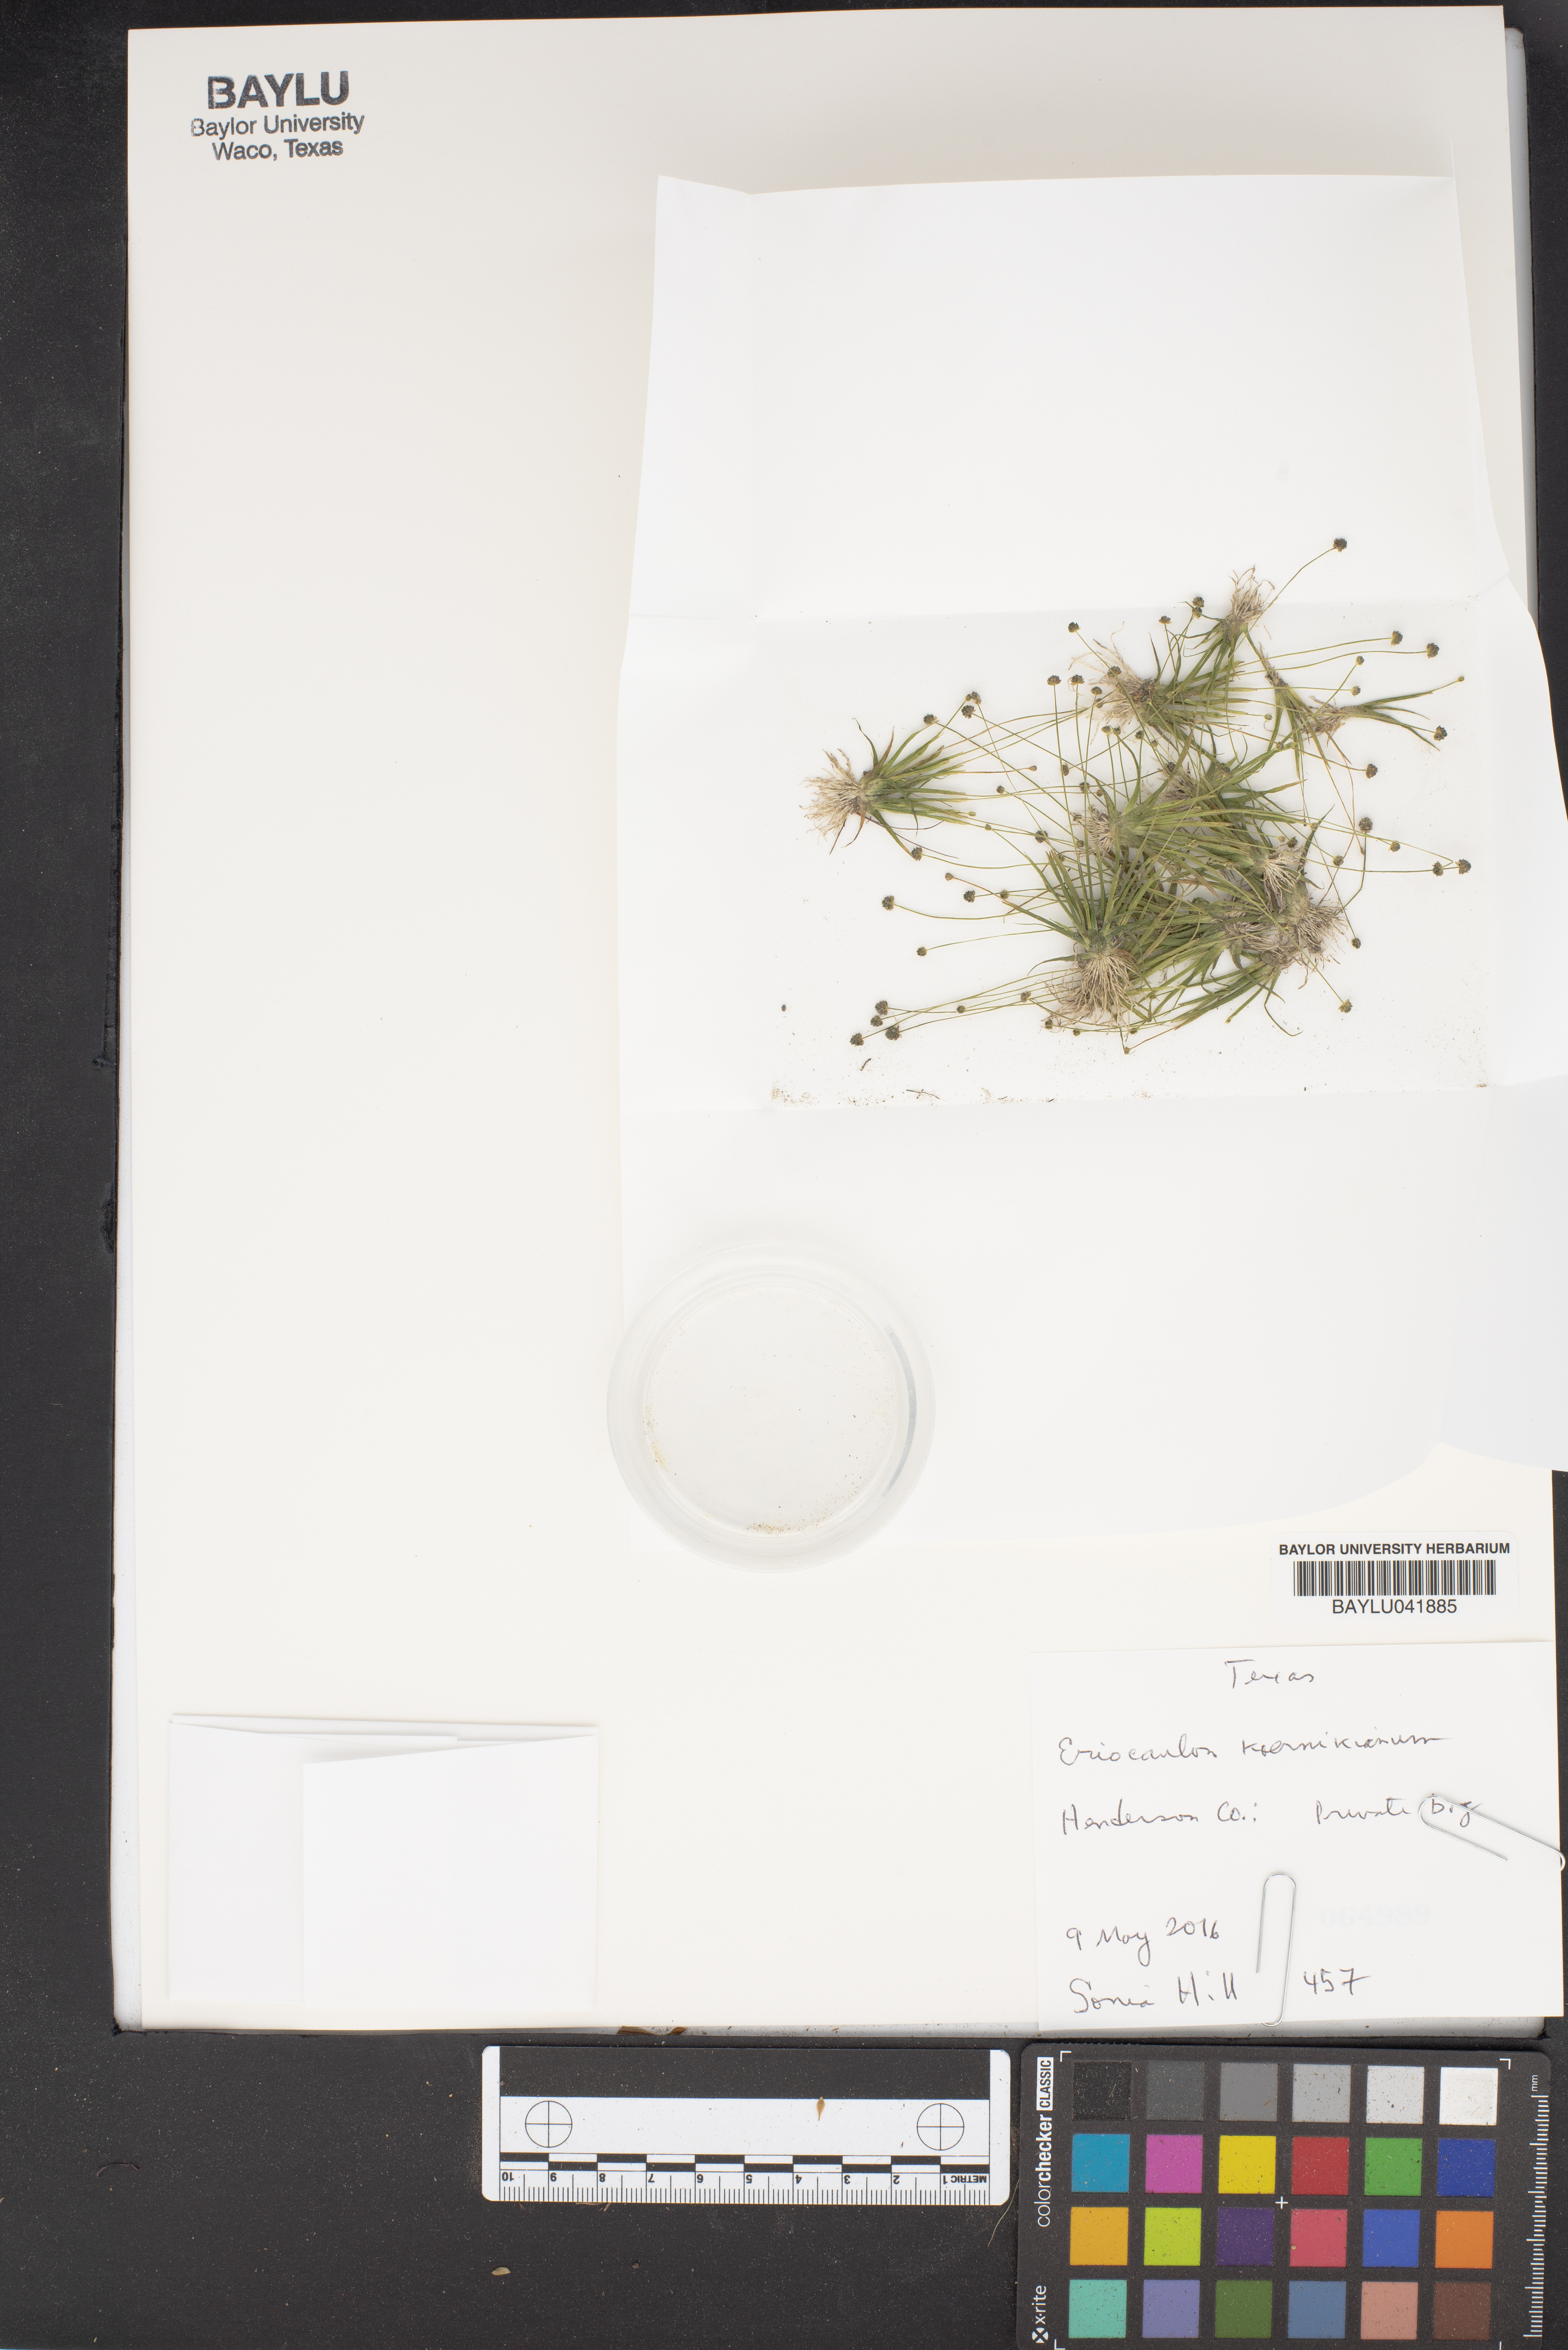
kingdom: Plantae
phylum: Tracheophyta
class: Liliopsida
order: Poales
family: Eriocaulaceae
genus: Eriocaulon
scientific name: Eriocaulon koernickianum
